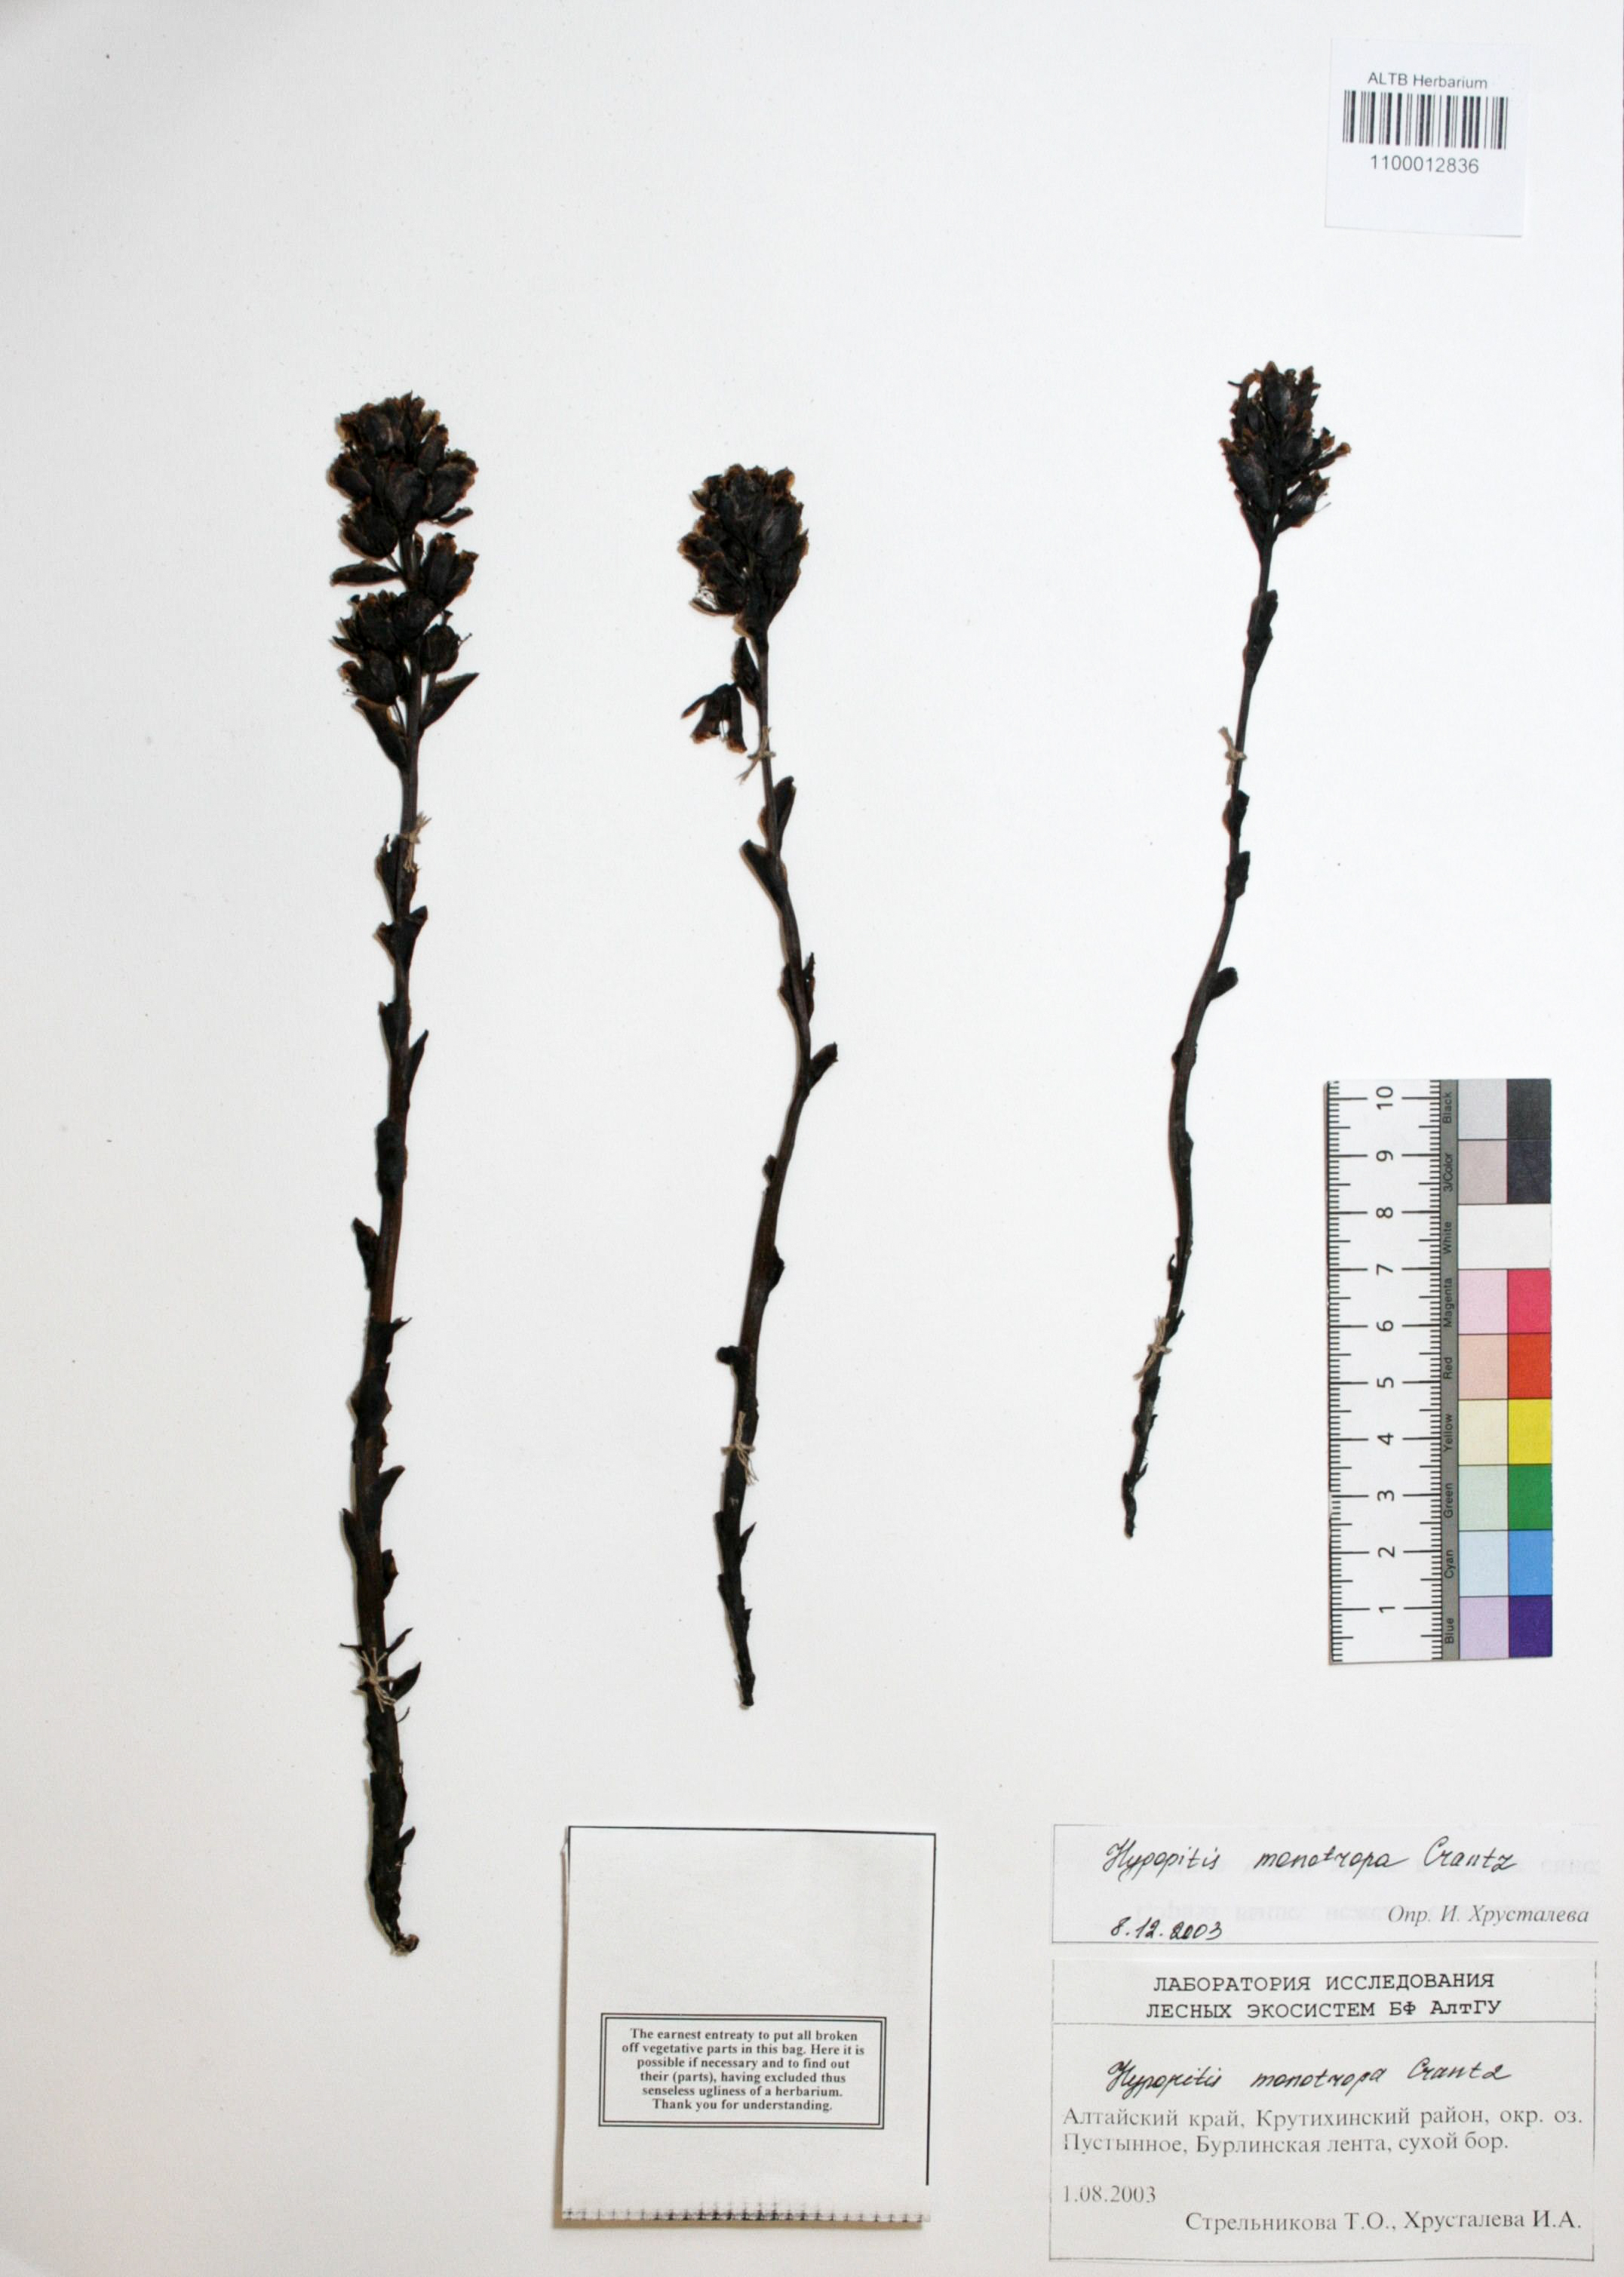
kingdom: Plantae
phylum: Tracheophyta
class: Magnoliopsida
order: Ericales
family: Ericaceae
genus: Hypopitys
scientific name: Hypopitys monotropa
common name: Yellow bird's-nest
